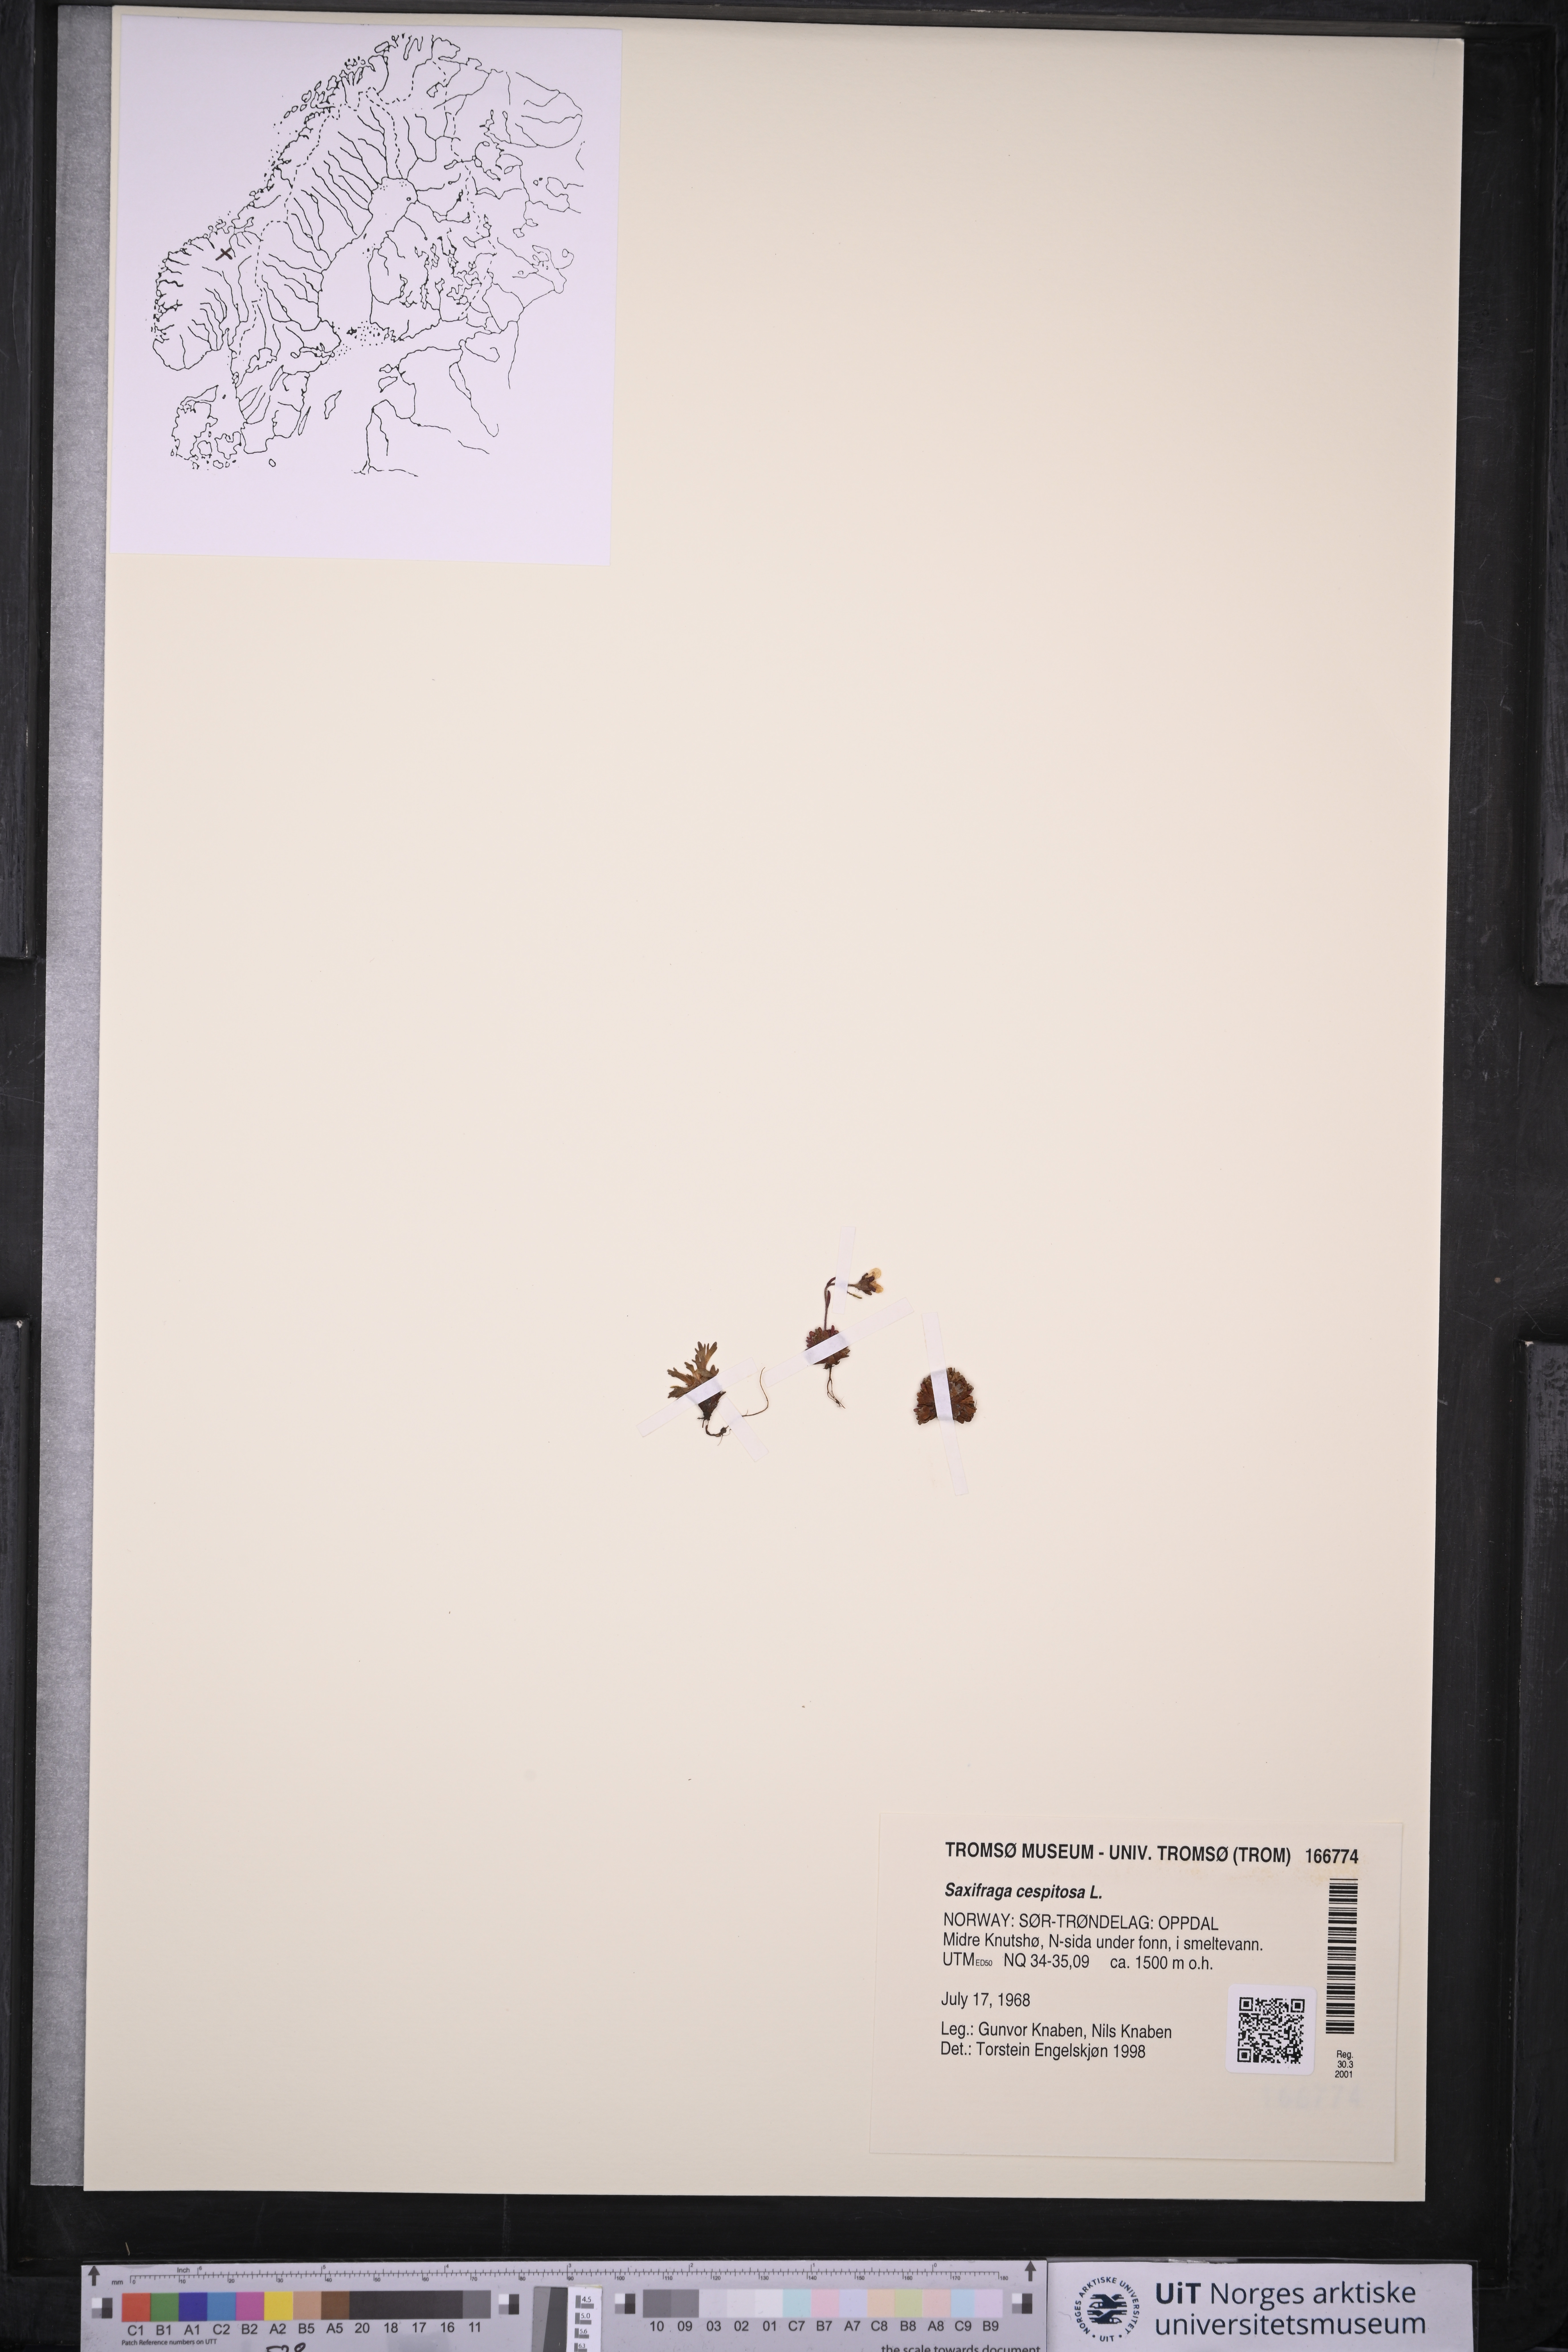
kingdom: Plantae
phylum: Tracheophyta
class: Magnoliopsida
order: Saxifragales
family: Saxifragaceae
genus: Saxifraga
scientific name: Saxifraga cespitosa
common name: Tufted saxifrage
